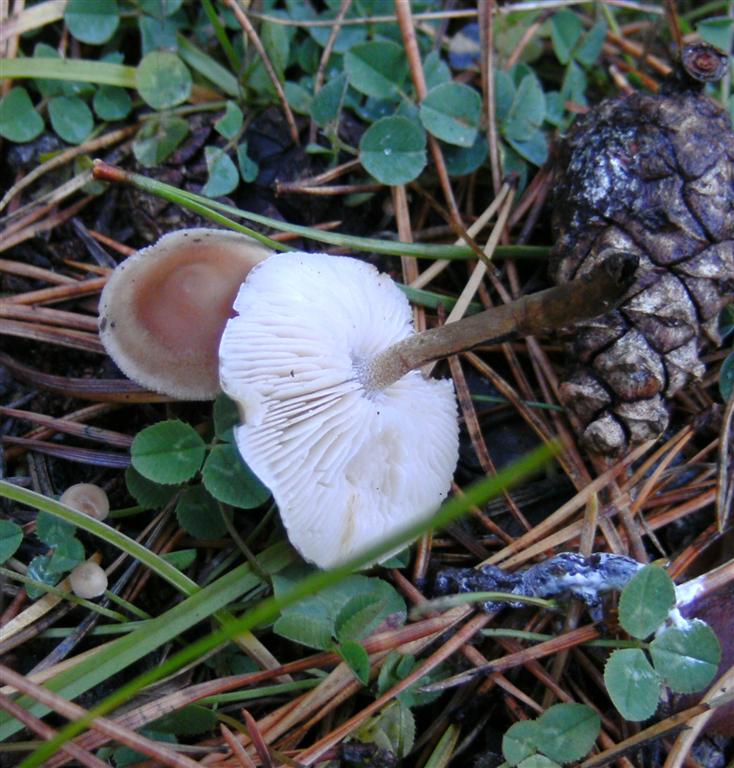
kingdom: Fungi
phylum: Basidiomycota
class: Agaricomycetes
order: Agaricales
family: Marasmiaceae
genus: Baeospora
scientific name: Baeospora myosura
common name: koglebruskhat
